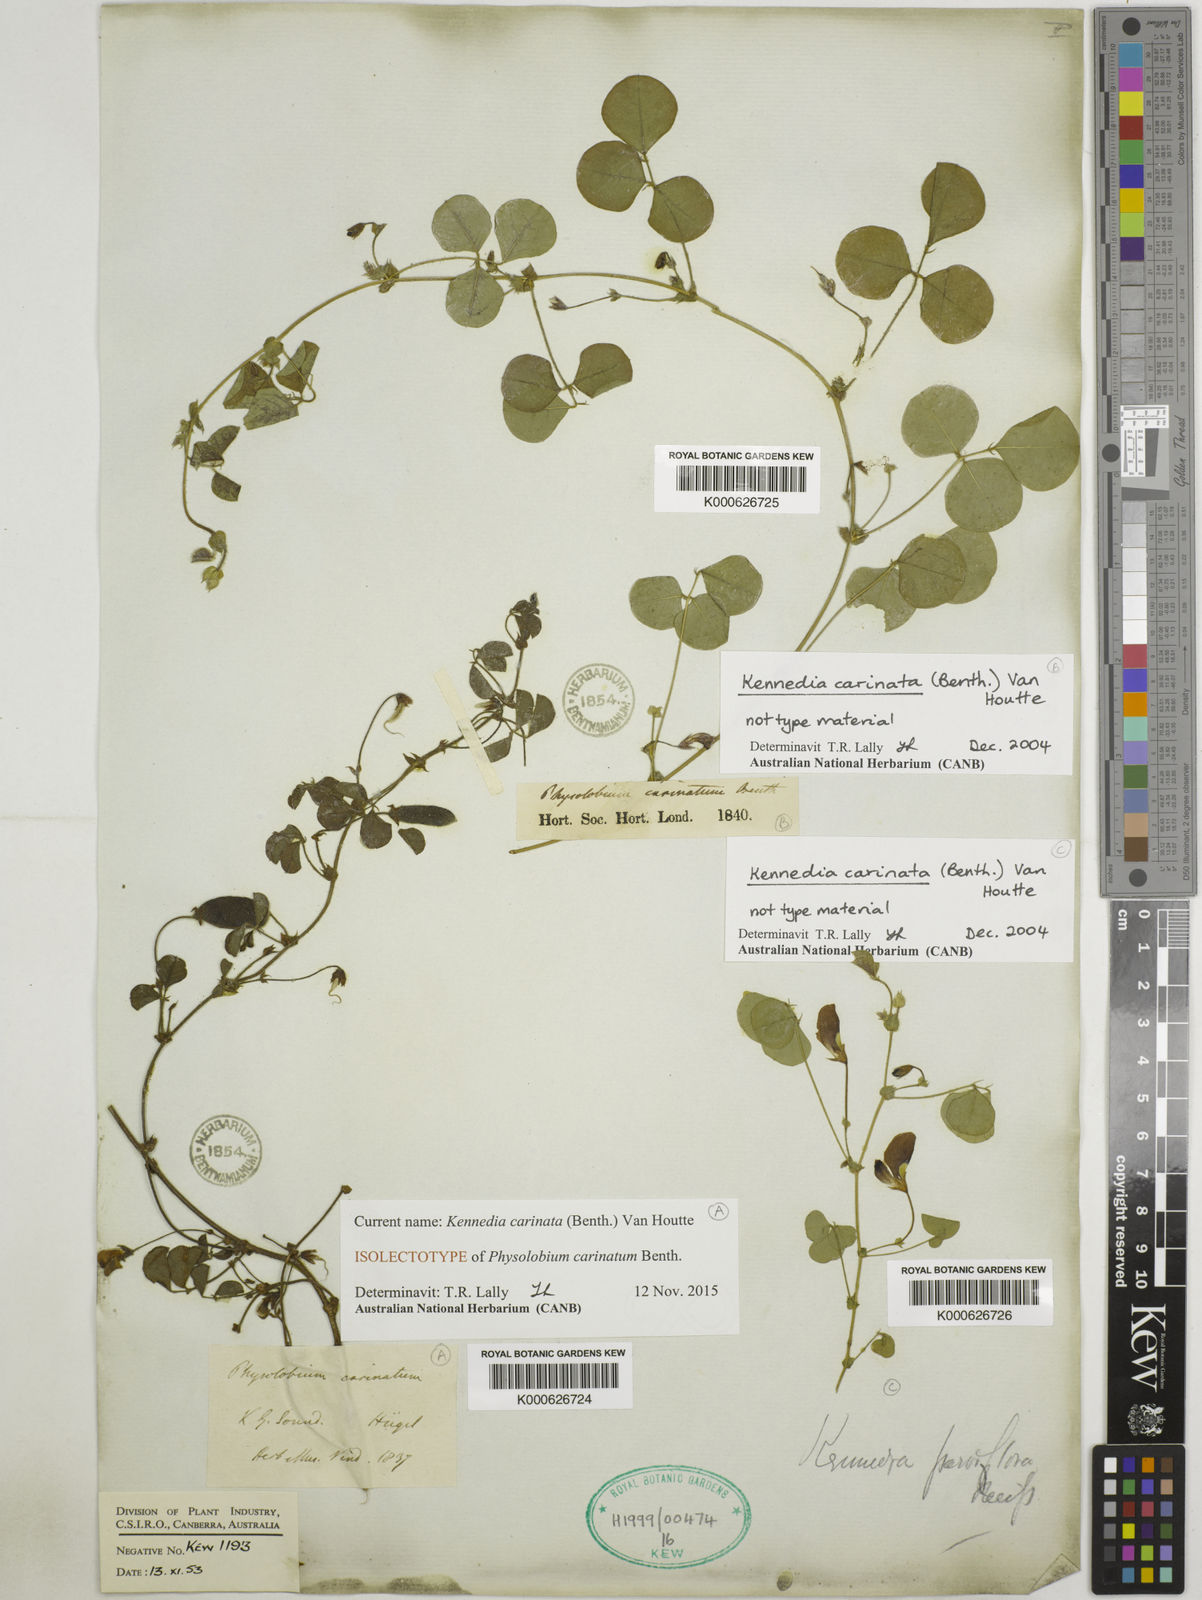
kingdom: Plantae
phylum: Tracheophyta
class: Magnoliopsida
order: Fabales
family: Fabaceae
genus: Kennedia
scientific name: Kennedia carinata
